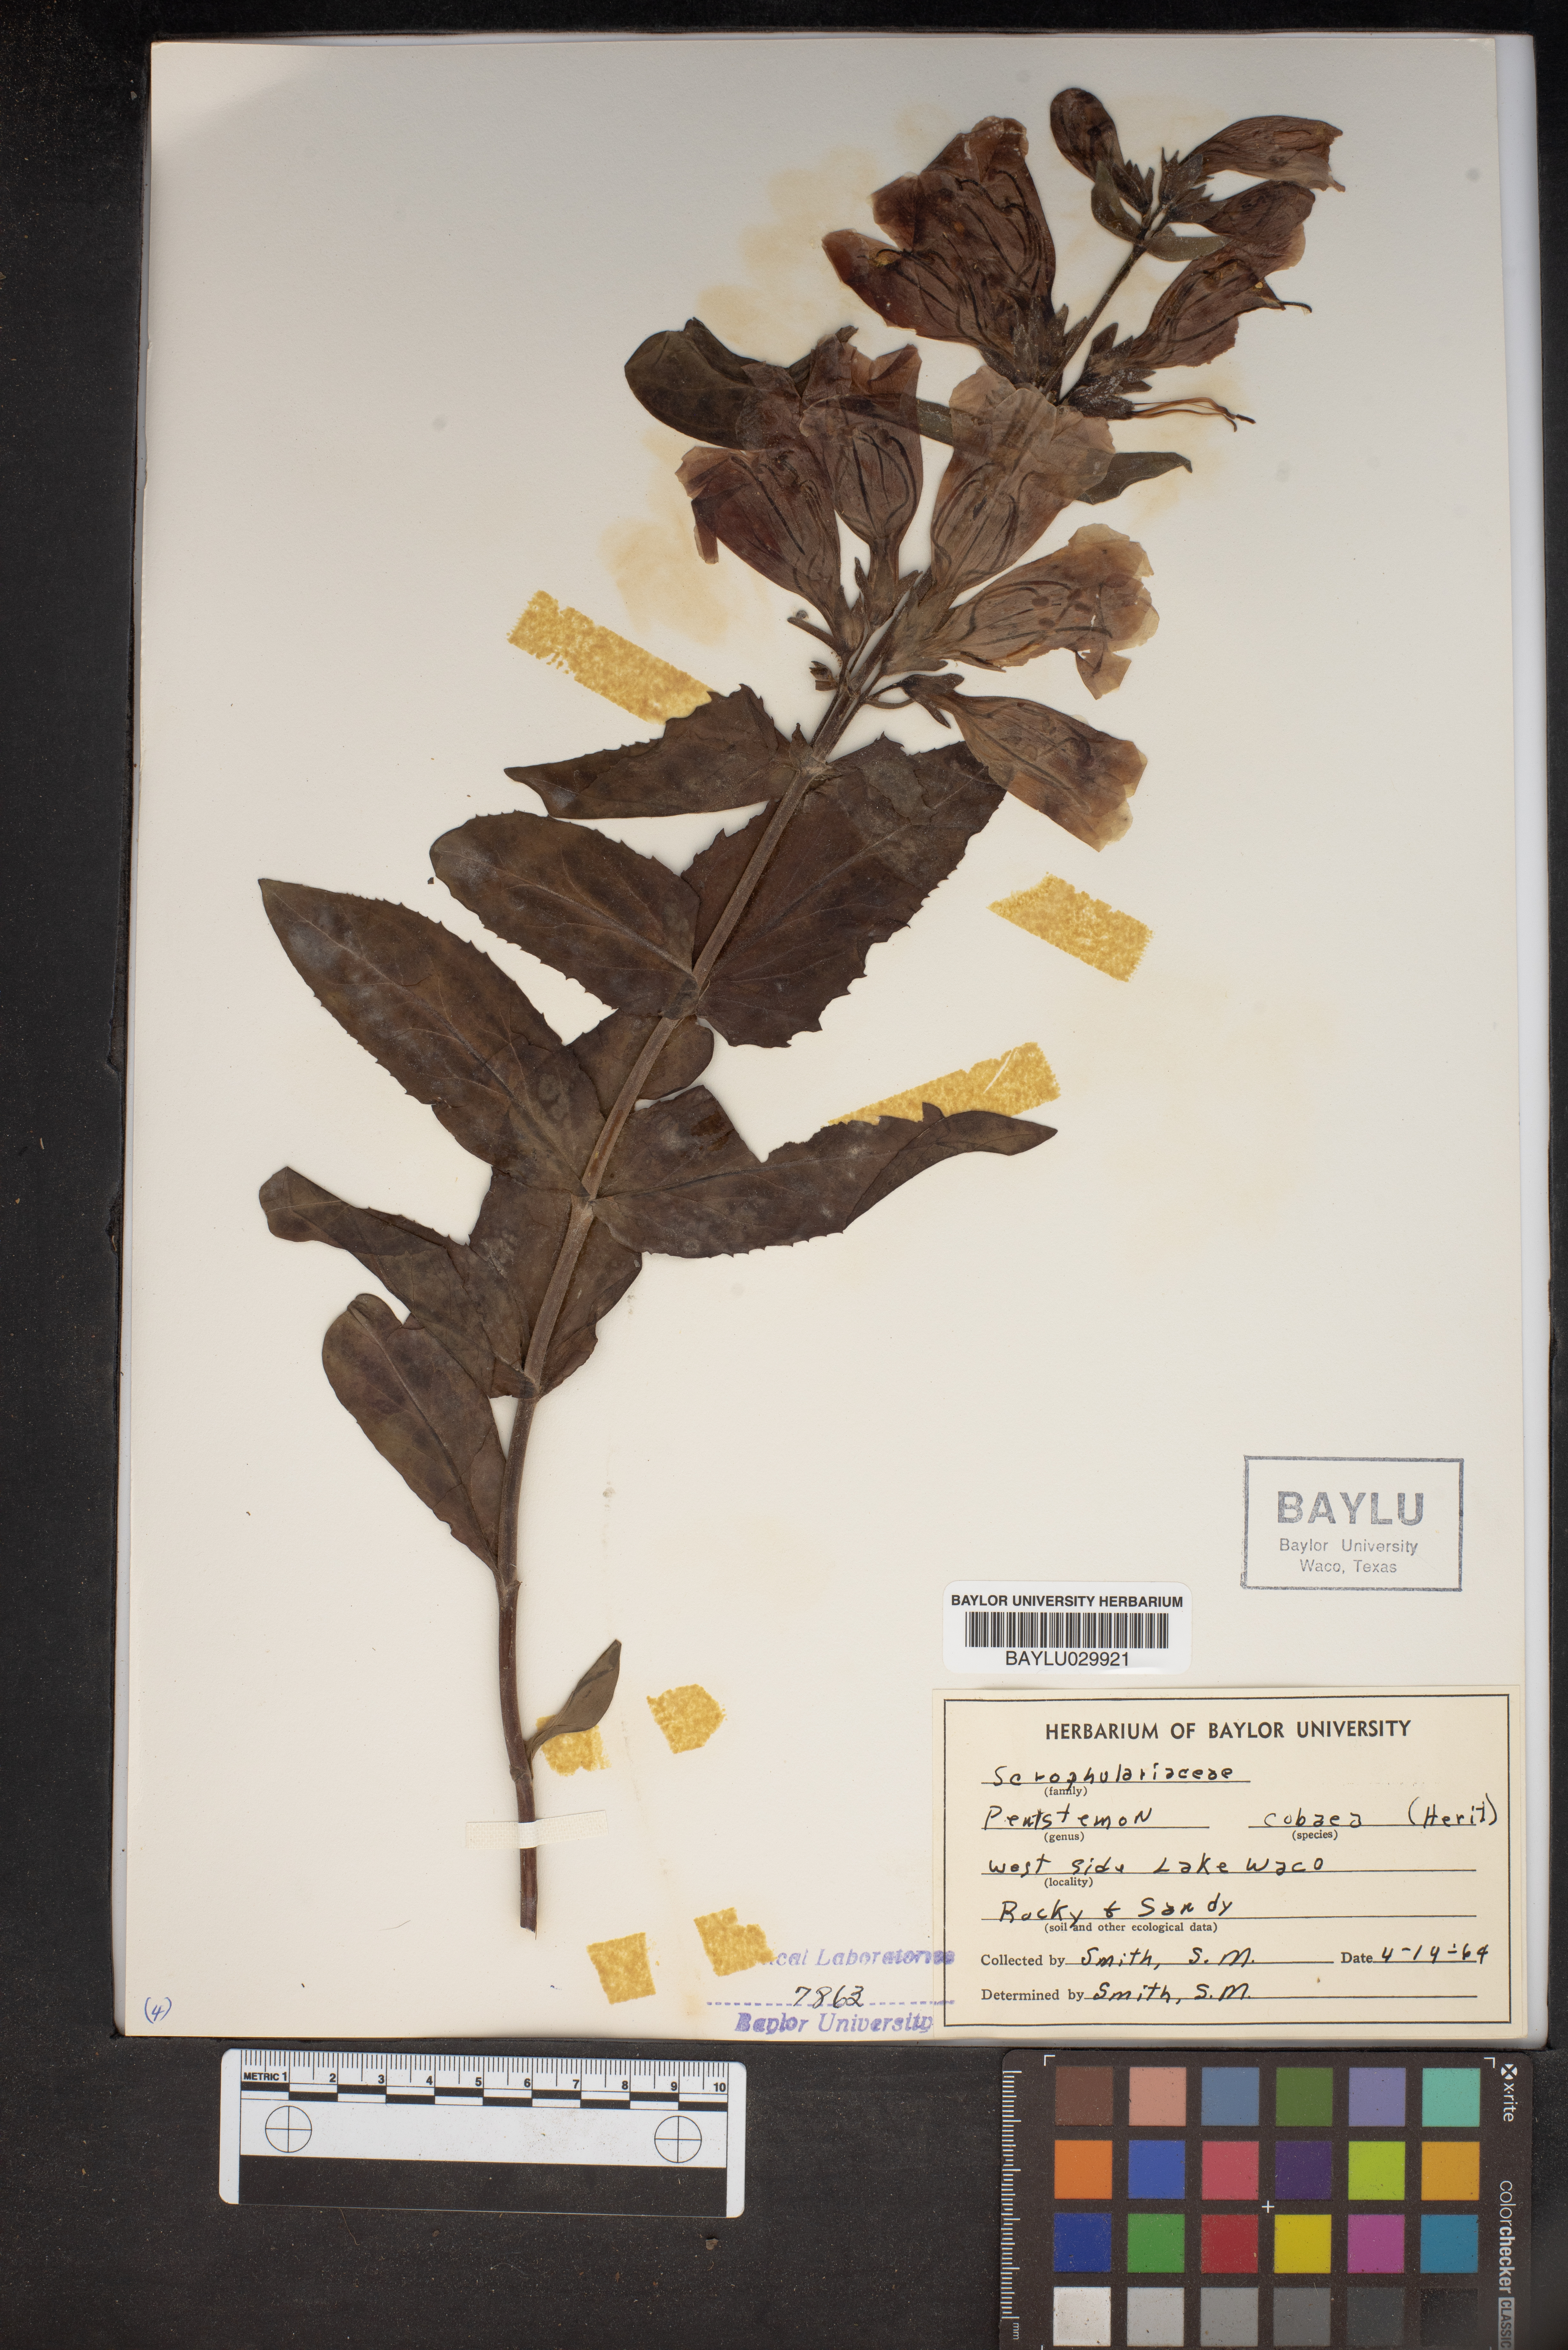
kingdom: Plantae
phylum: Tracheophyta
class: Magnoliopsida
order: Lamiales
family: Plantaginaceae
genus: Penstemon
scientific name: Penstemon cobaea
